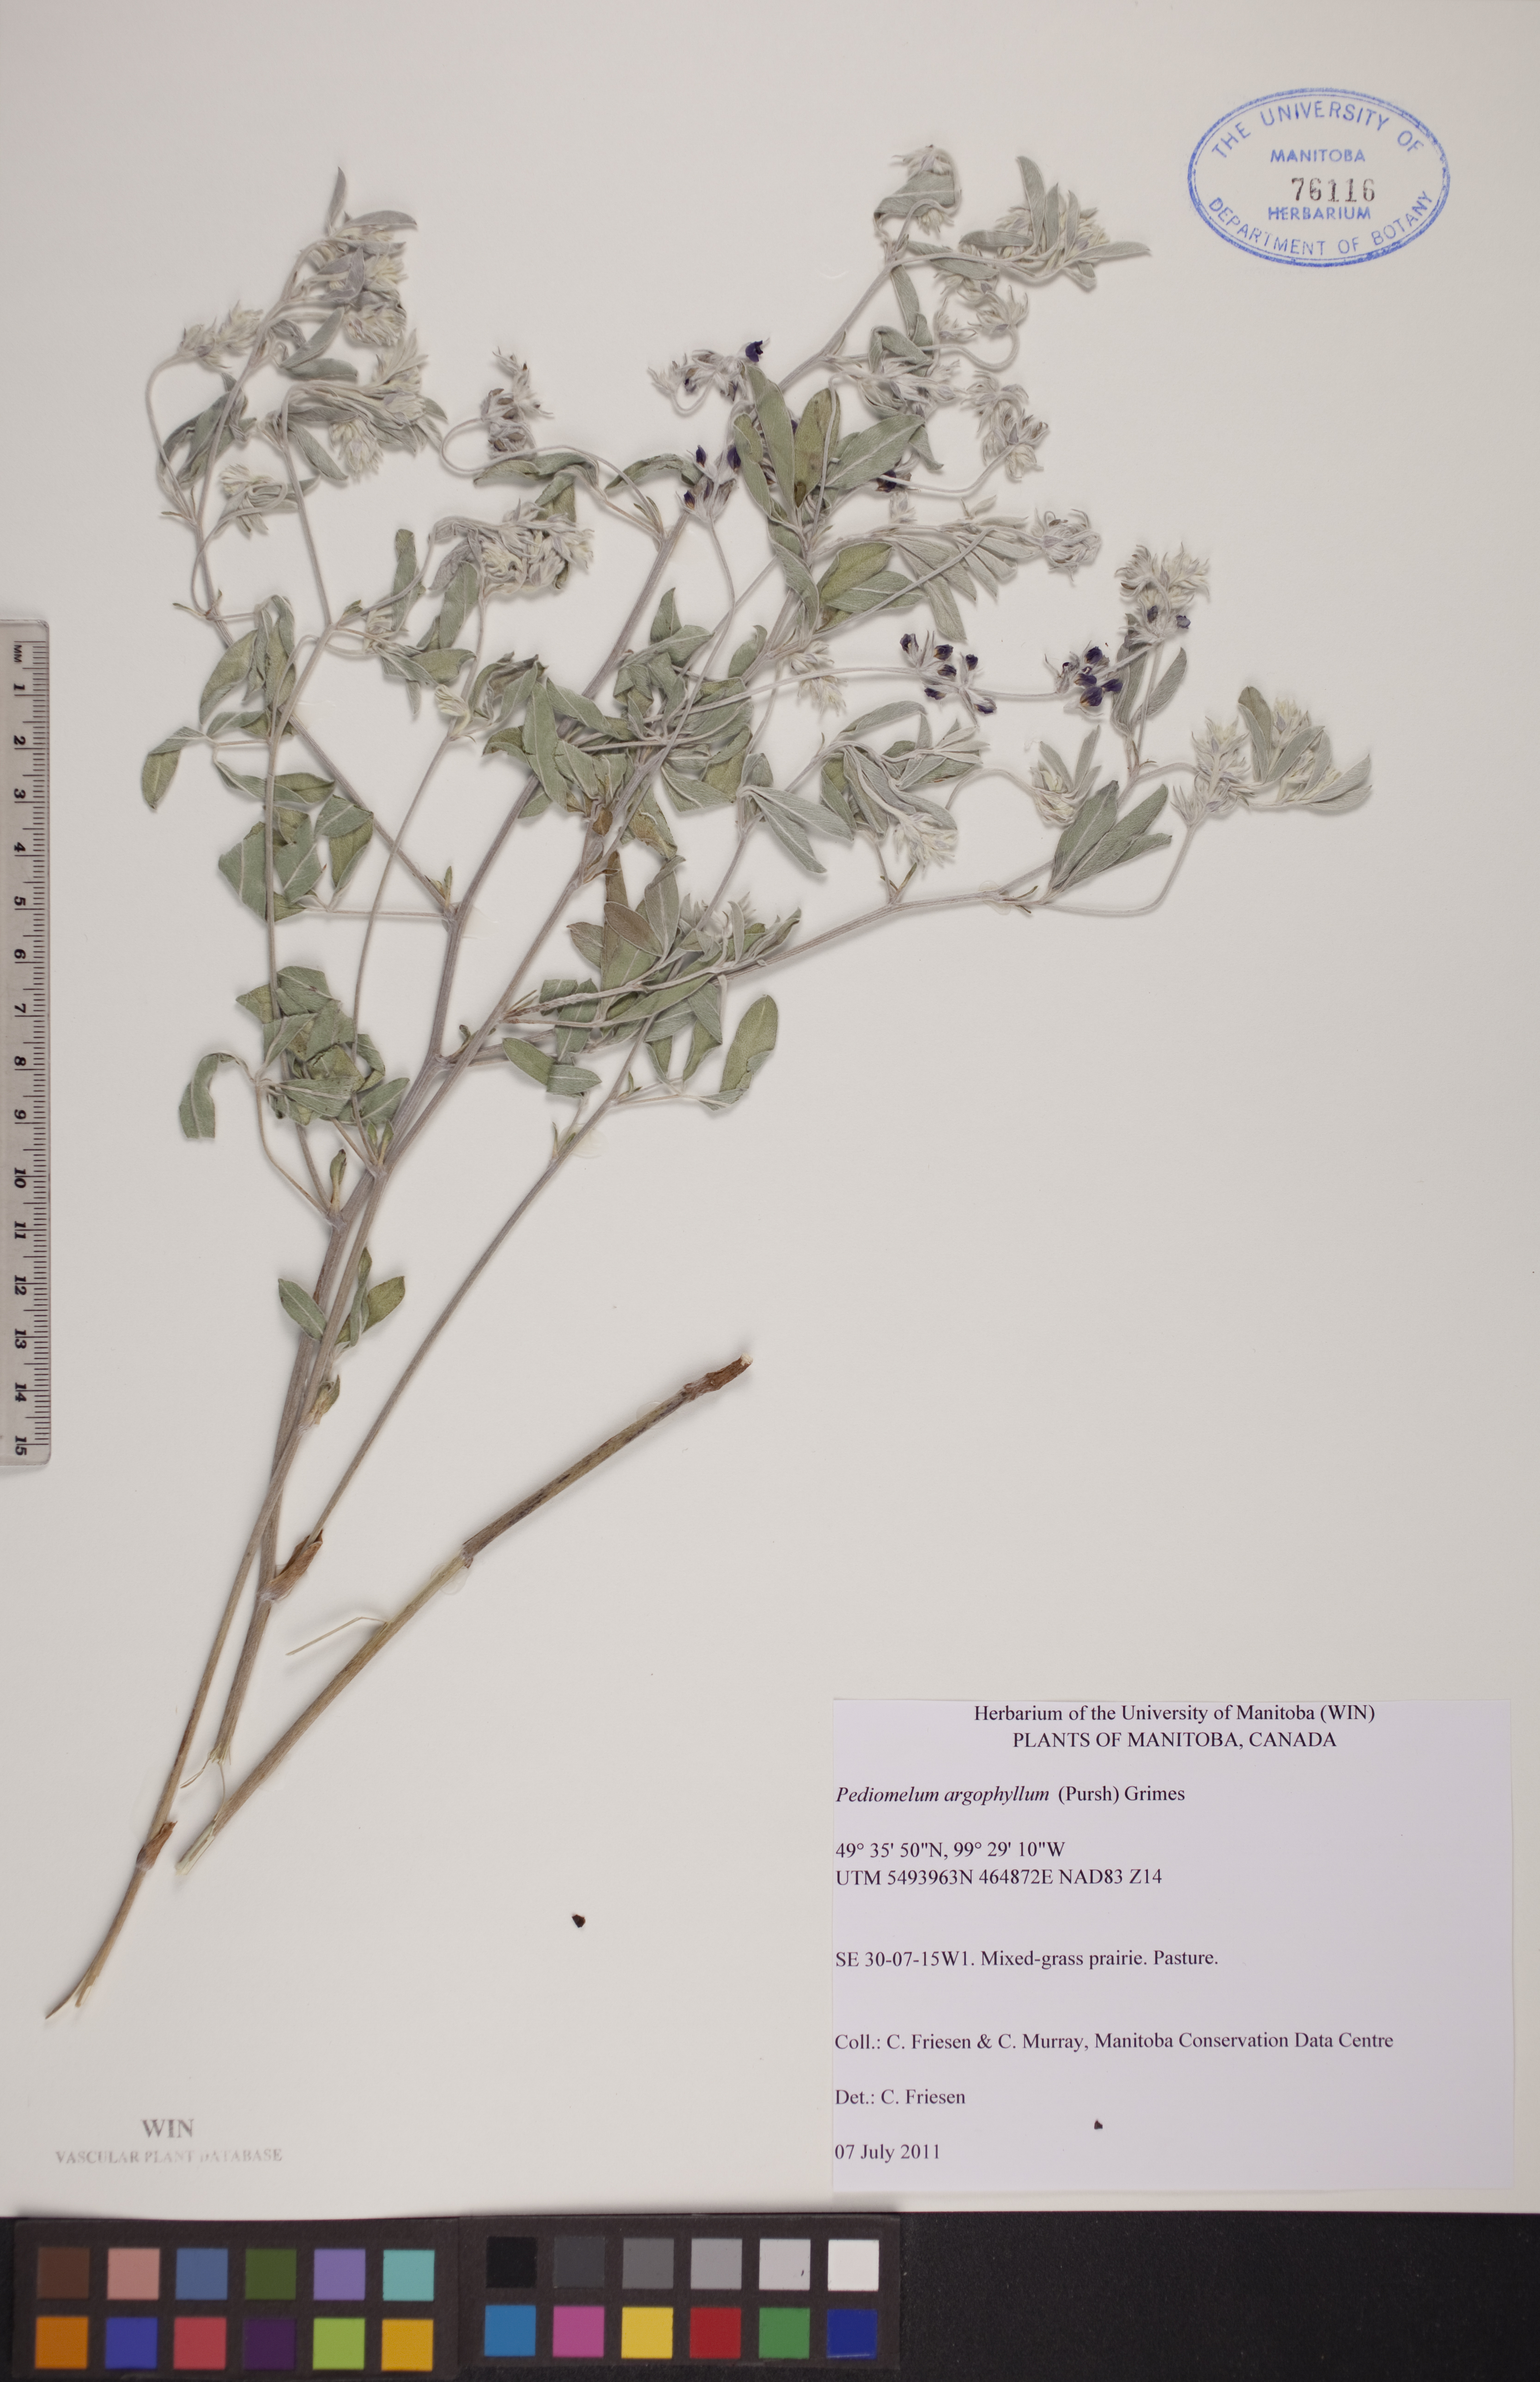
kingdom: Plantae
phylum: Tracheophyta
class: Magnoliopsida
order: Fabales
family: Fabaceae
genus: Pediomelum
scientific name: Pediomelum argophyllum
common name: Silver-leaved indian breadroot
